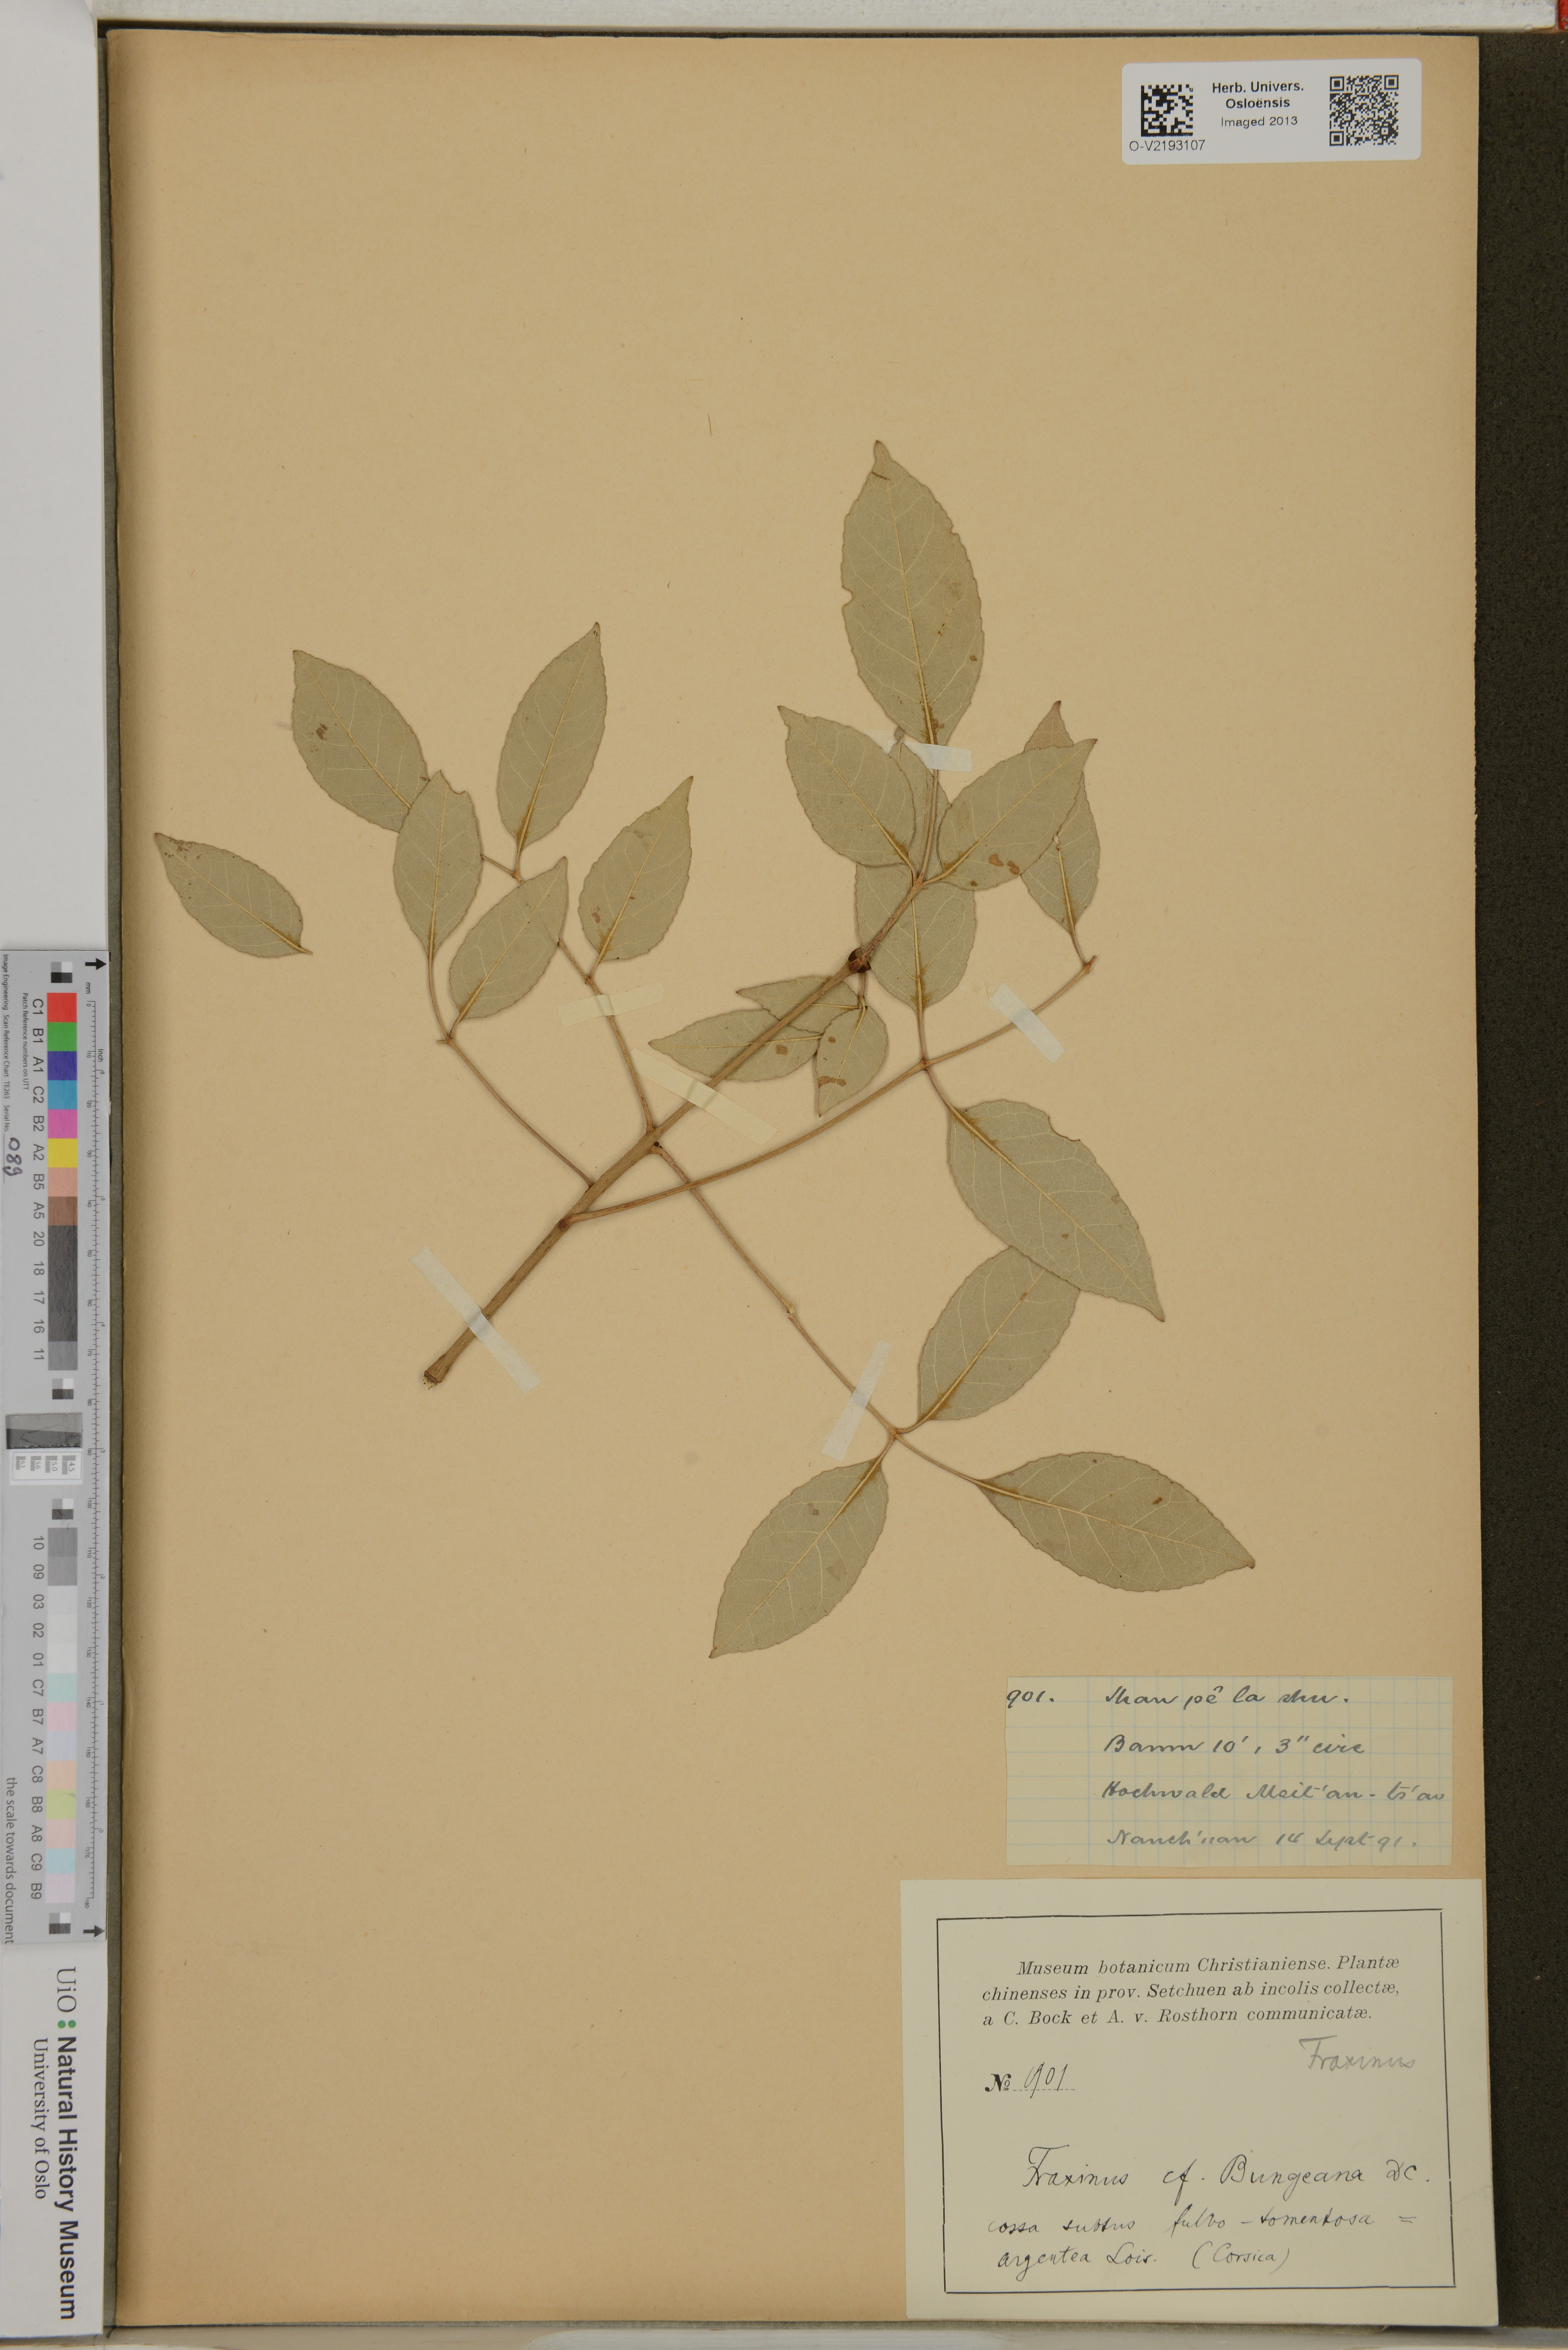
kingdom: Plantae
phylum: Tracheophyta
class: Magnoliopsida
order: Lamiales
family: Oleaceae
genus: Fraxinus
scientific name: Fraxinus bungeana
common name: Northern ash
